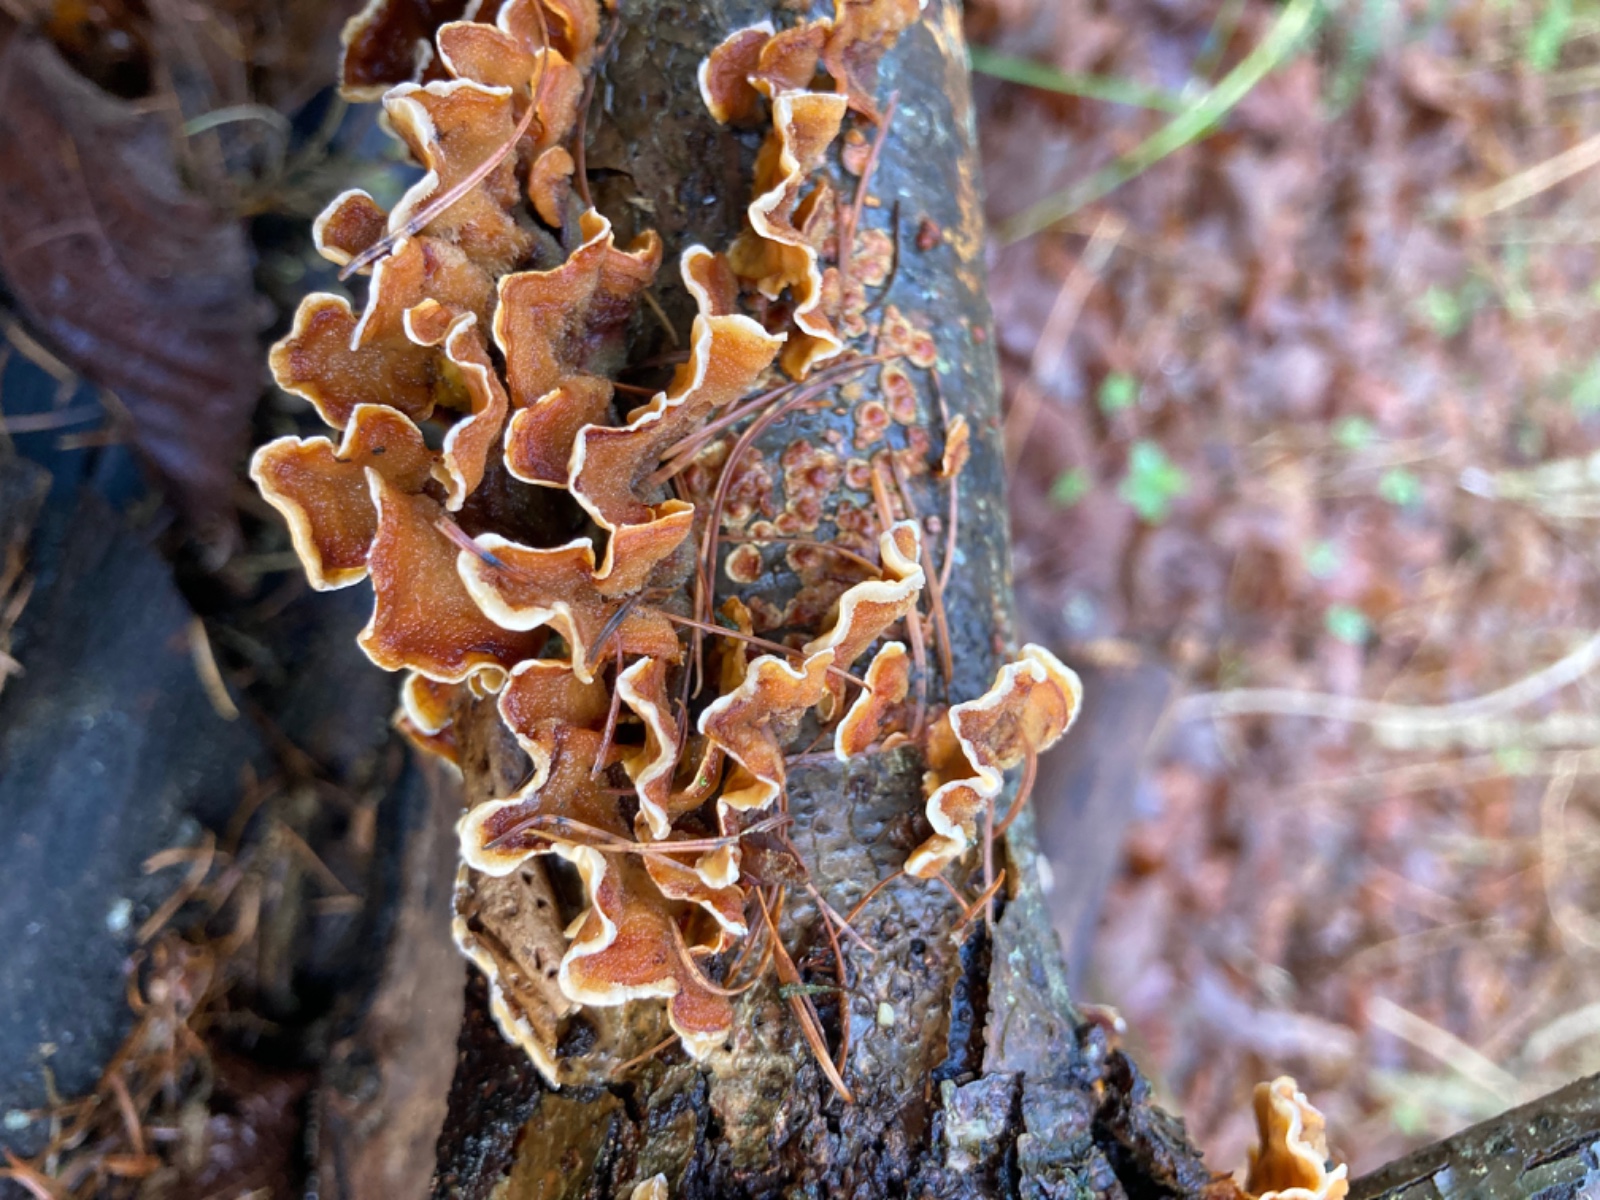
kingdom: Fungi
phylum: Basidiomycota
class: Agaricomycetes
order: Russulales
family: Stereaceae
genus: Stereum
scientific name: Stereum hirsutum
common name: håret lædersvamp
